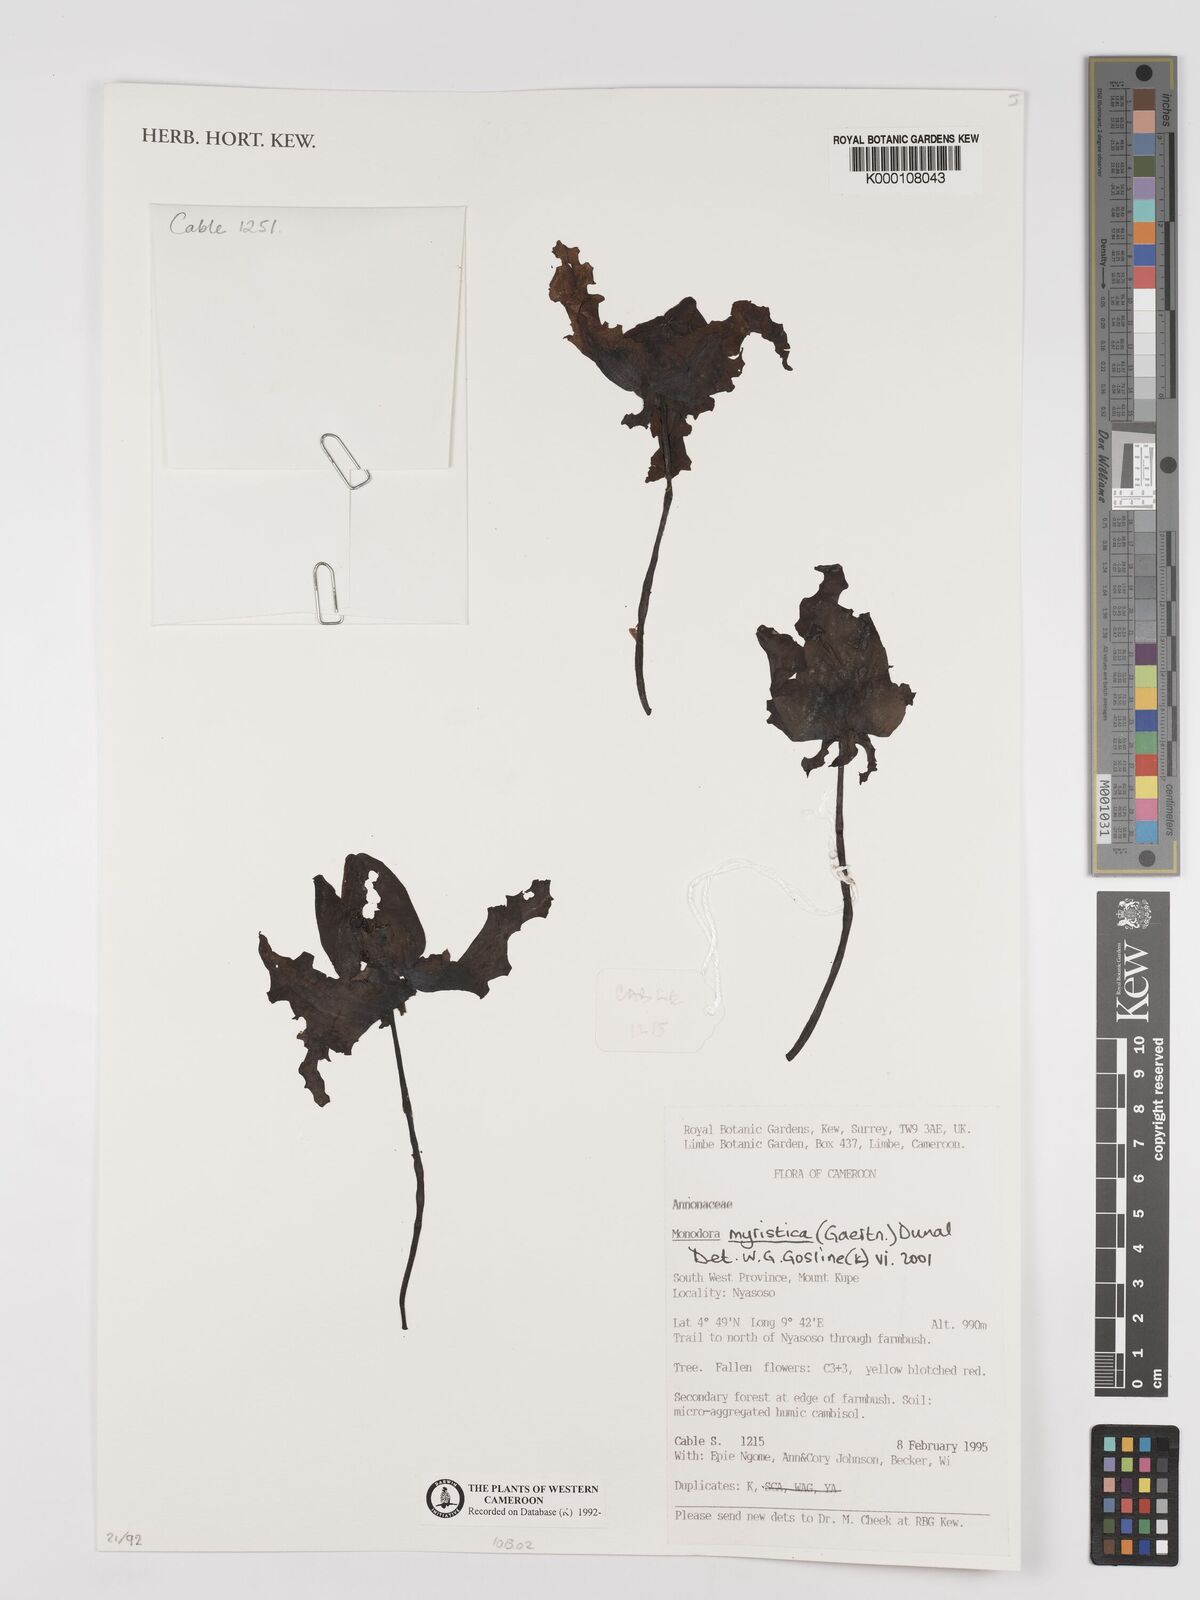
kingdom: Plantae
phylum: Tracheophyta
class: Magnoliopsida
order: Magnoliales
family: Annonaceae
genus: Monodora
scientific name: Monodora myristica
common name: African nutmeg
